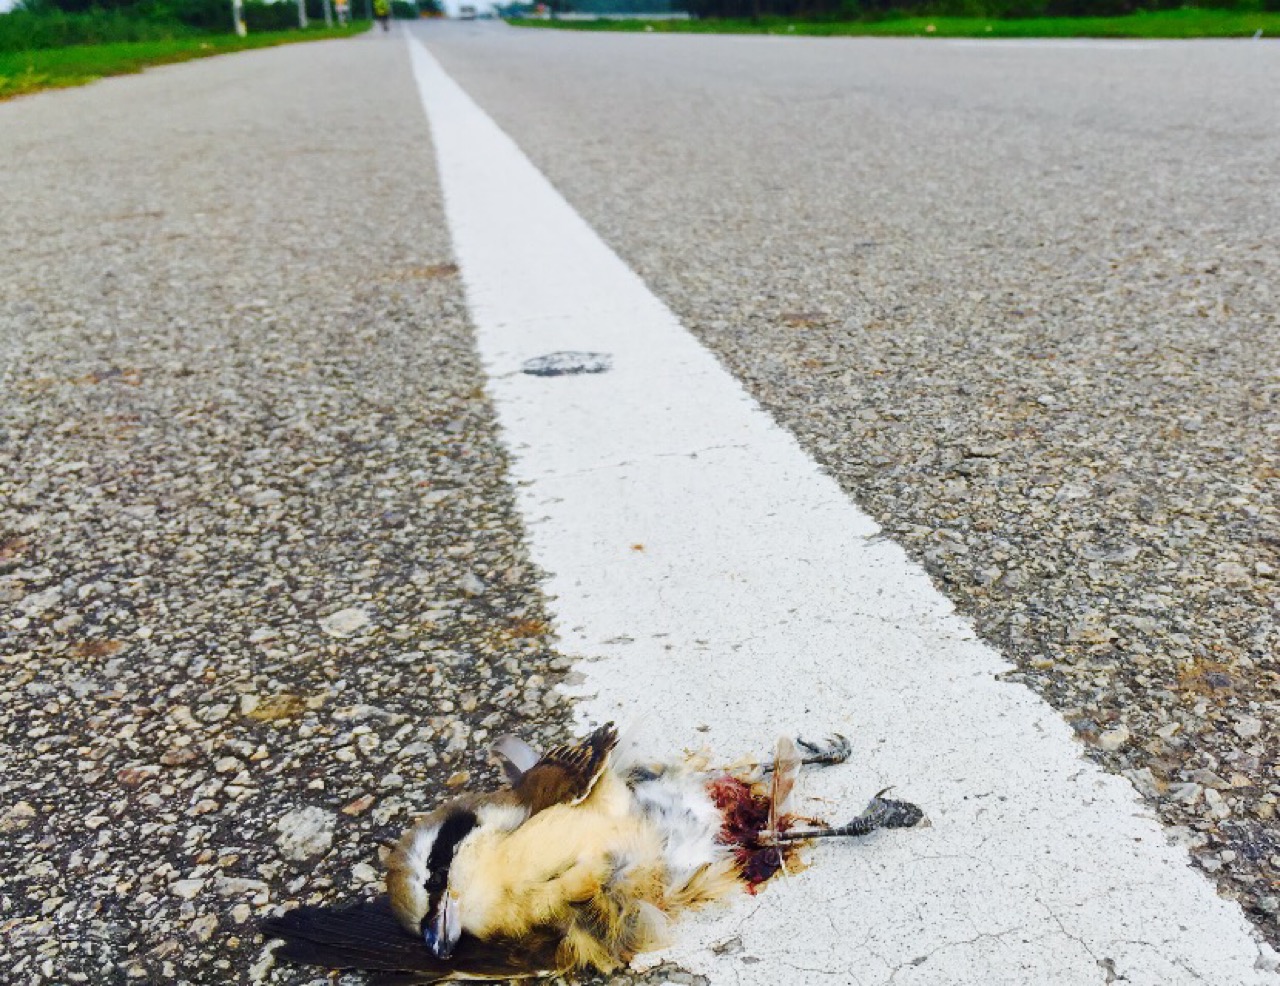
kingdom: Animalia
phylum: Chordata
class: Aves
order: Passeriformes
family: Laniidae
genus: Lanius
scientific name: Lanius cristatus
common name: Brown shrike
